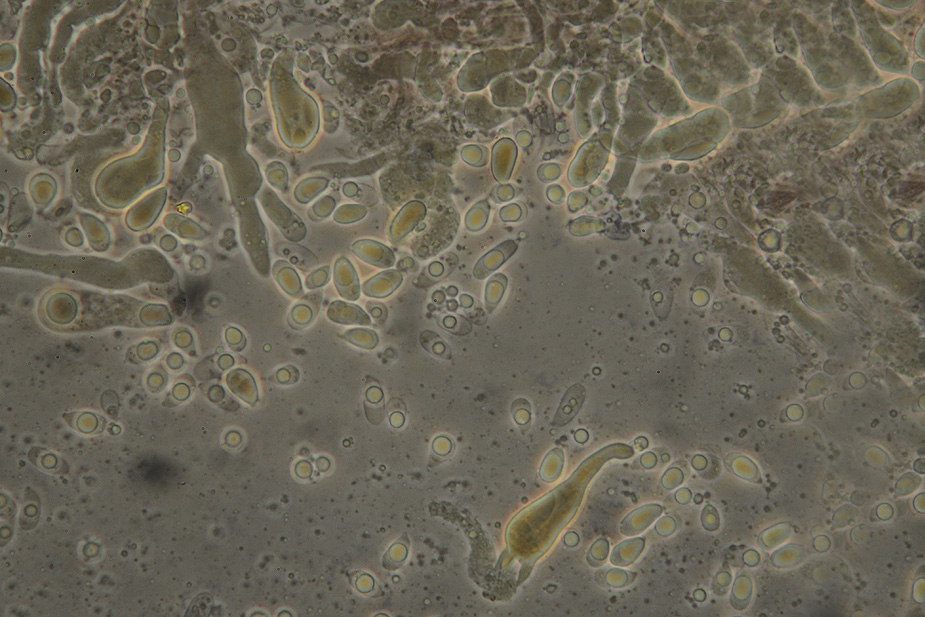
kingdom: Fungi
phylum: Basidiomycota
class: Agaricomycetes
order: Agaricales
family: Mycenaceae
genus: Mycena
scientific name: Mycena olivaceomarginata
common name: brunægget huesvamp
